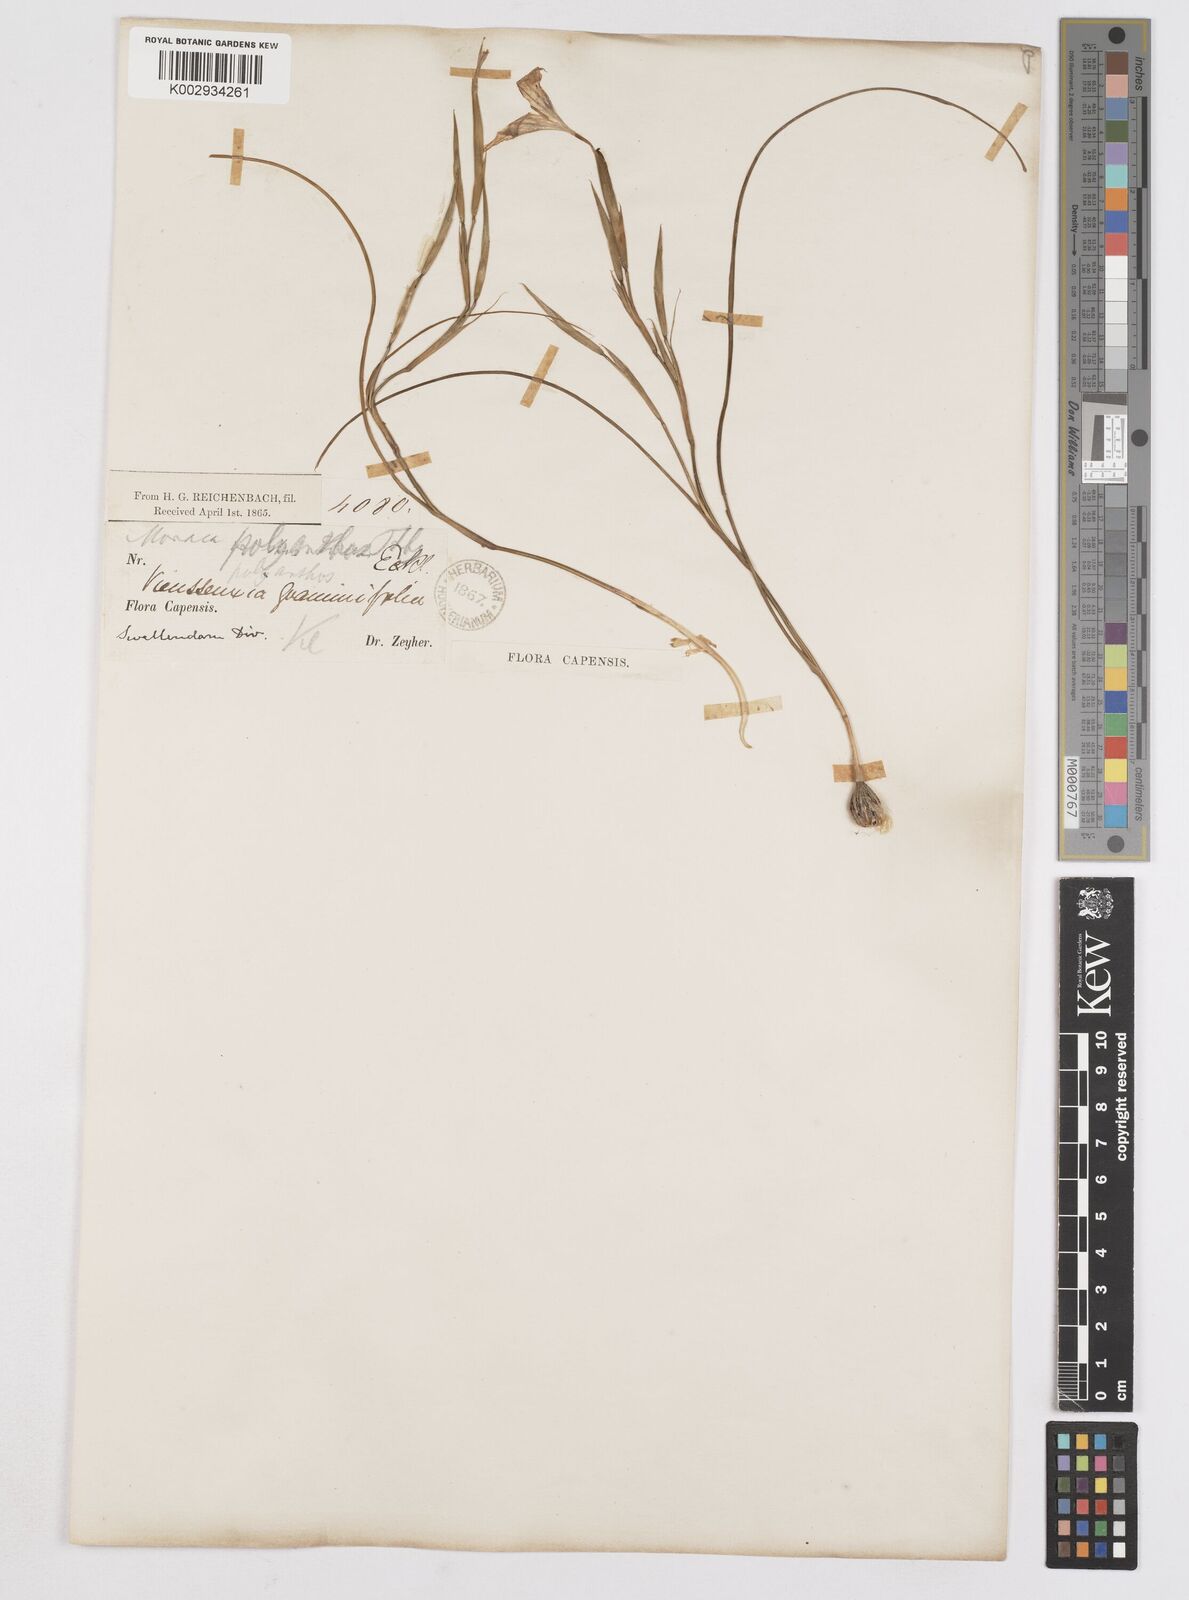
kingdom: Plantae
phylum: Tracheophyta
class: Liliopsida
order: Asparagales
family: Iridaceae
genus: Moraea
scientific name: Moraea bipartita
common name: Blue tulp
